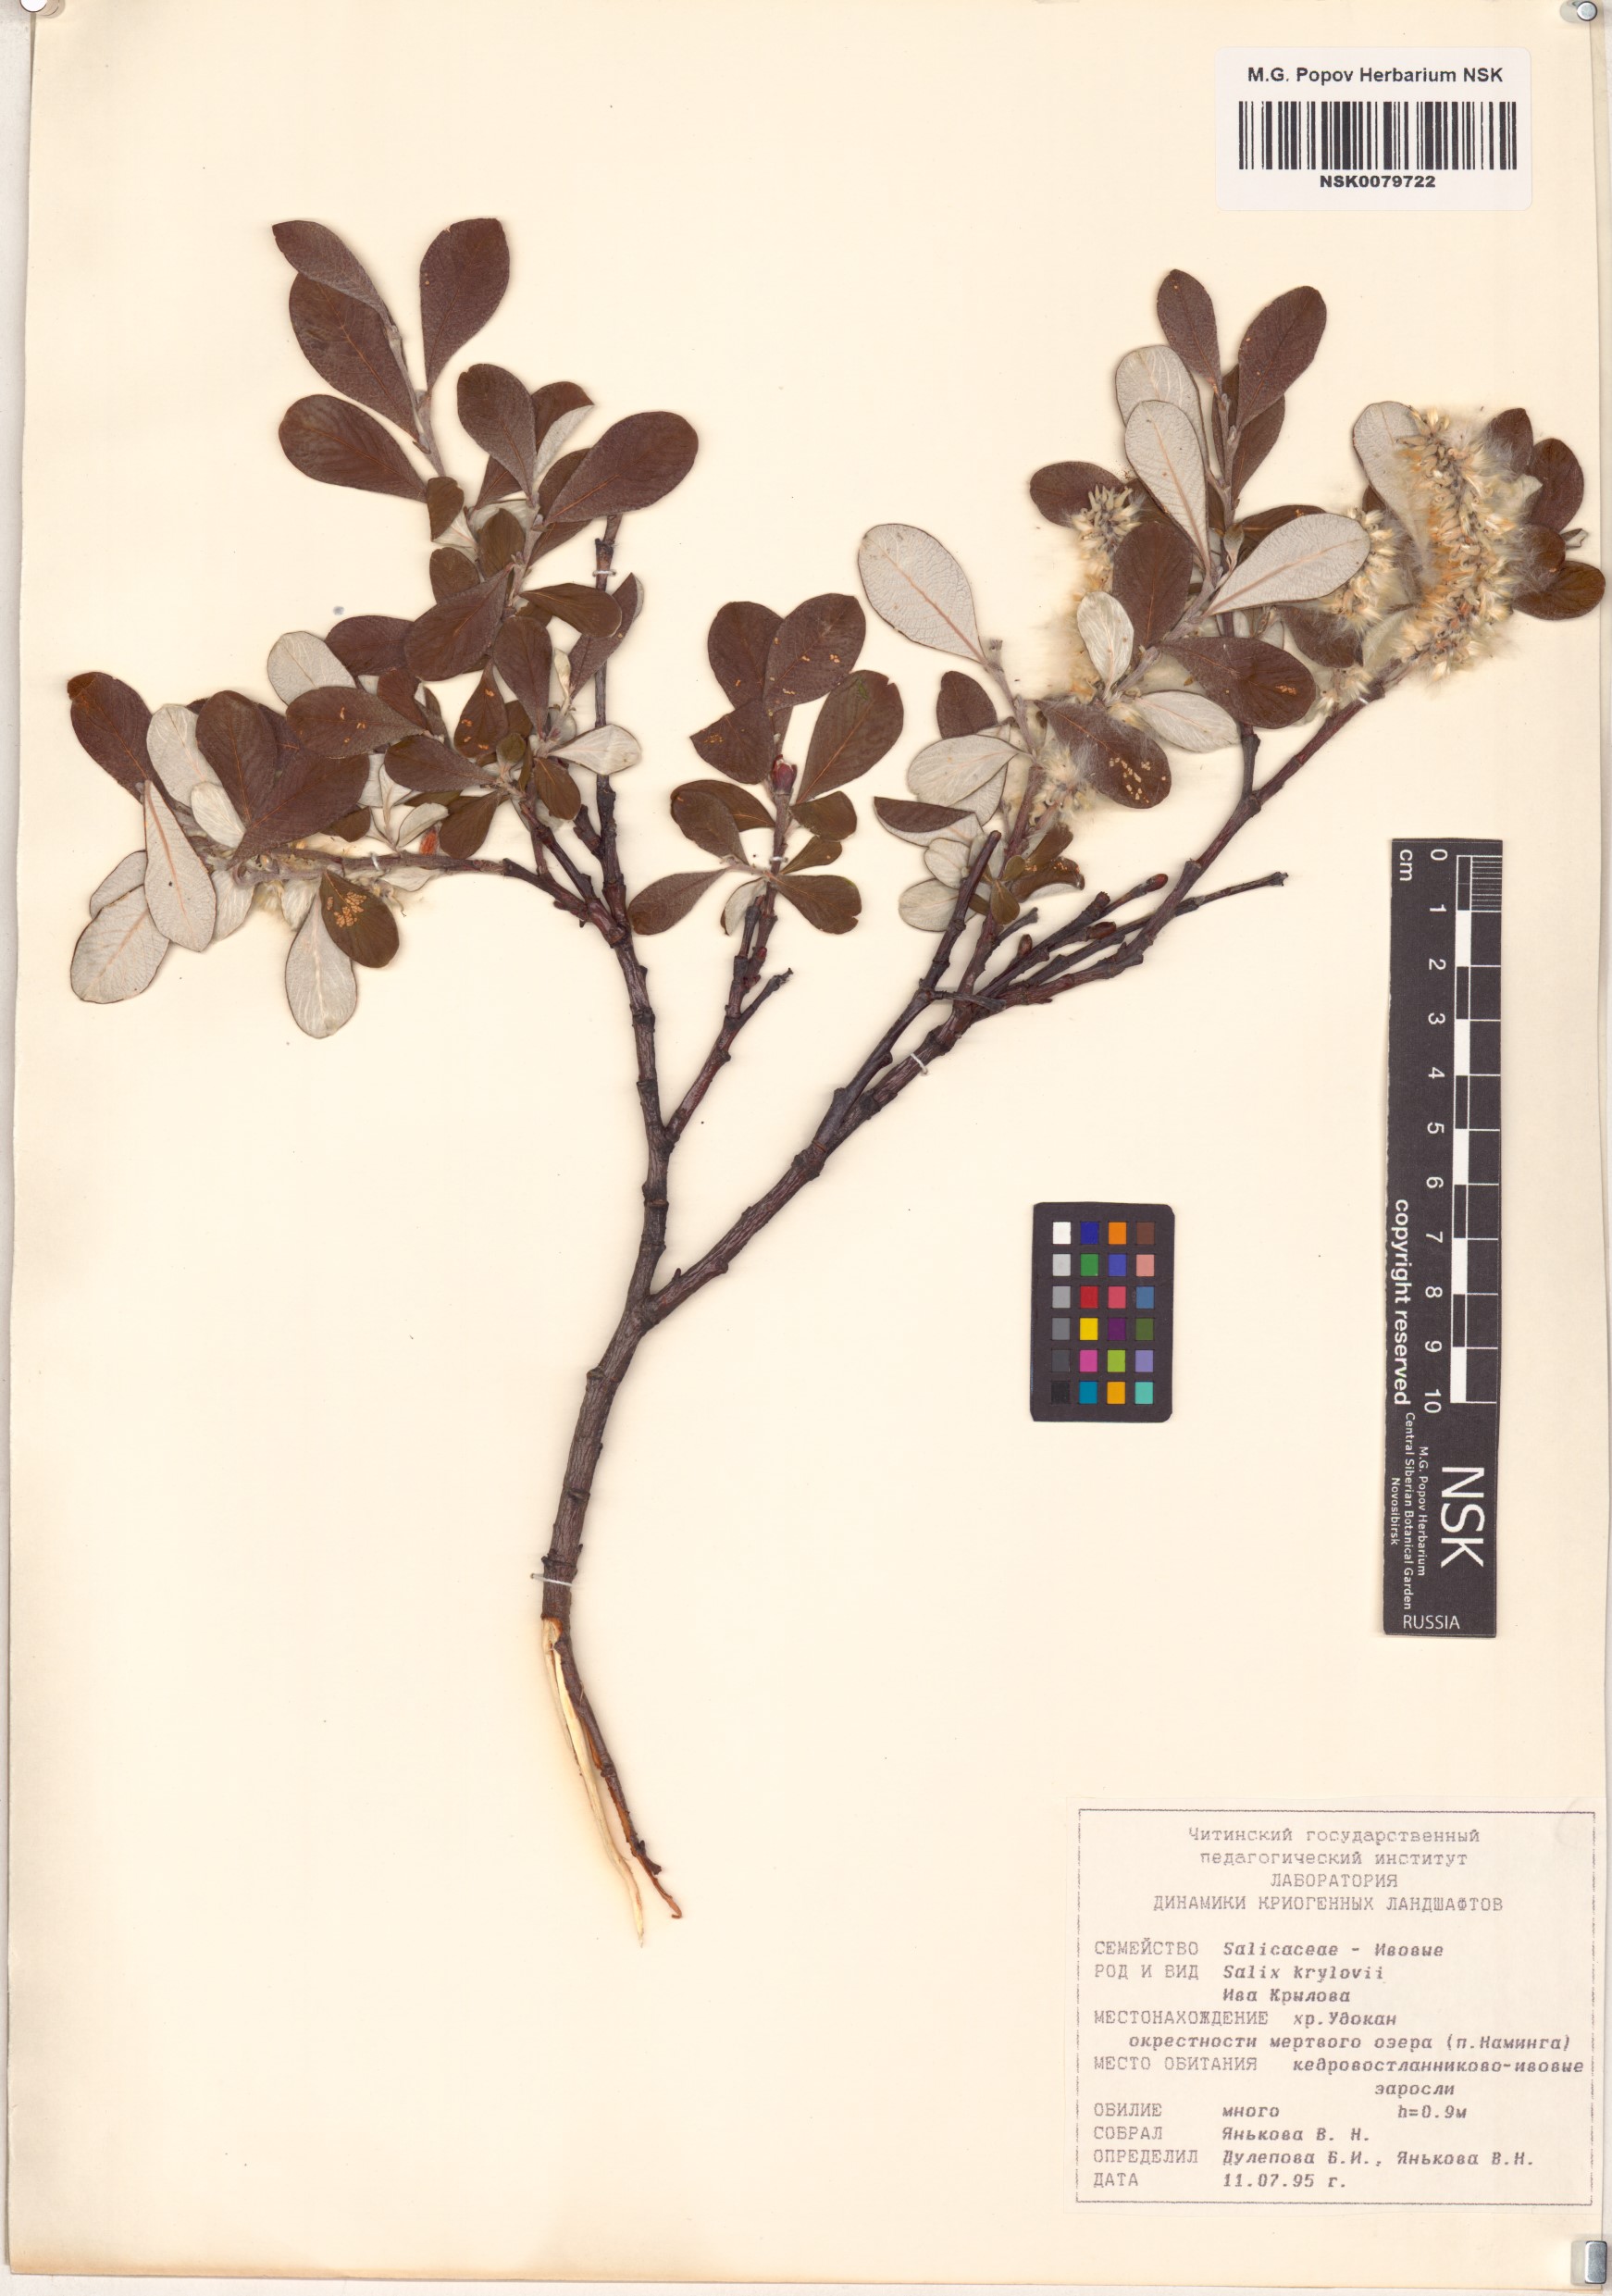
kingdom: Plantae
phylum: Tracheophyta
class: Magnoliopsida
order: Malpighiales
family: Salicaceae
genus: Salix
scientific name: Salix krylovii
